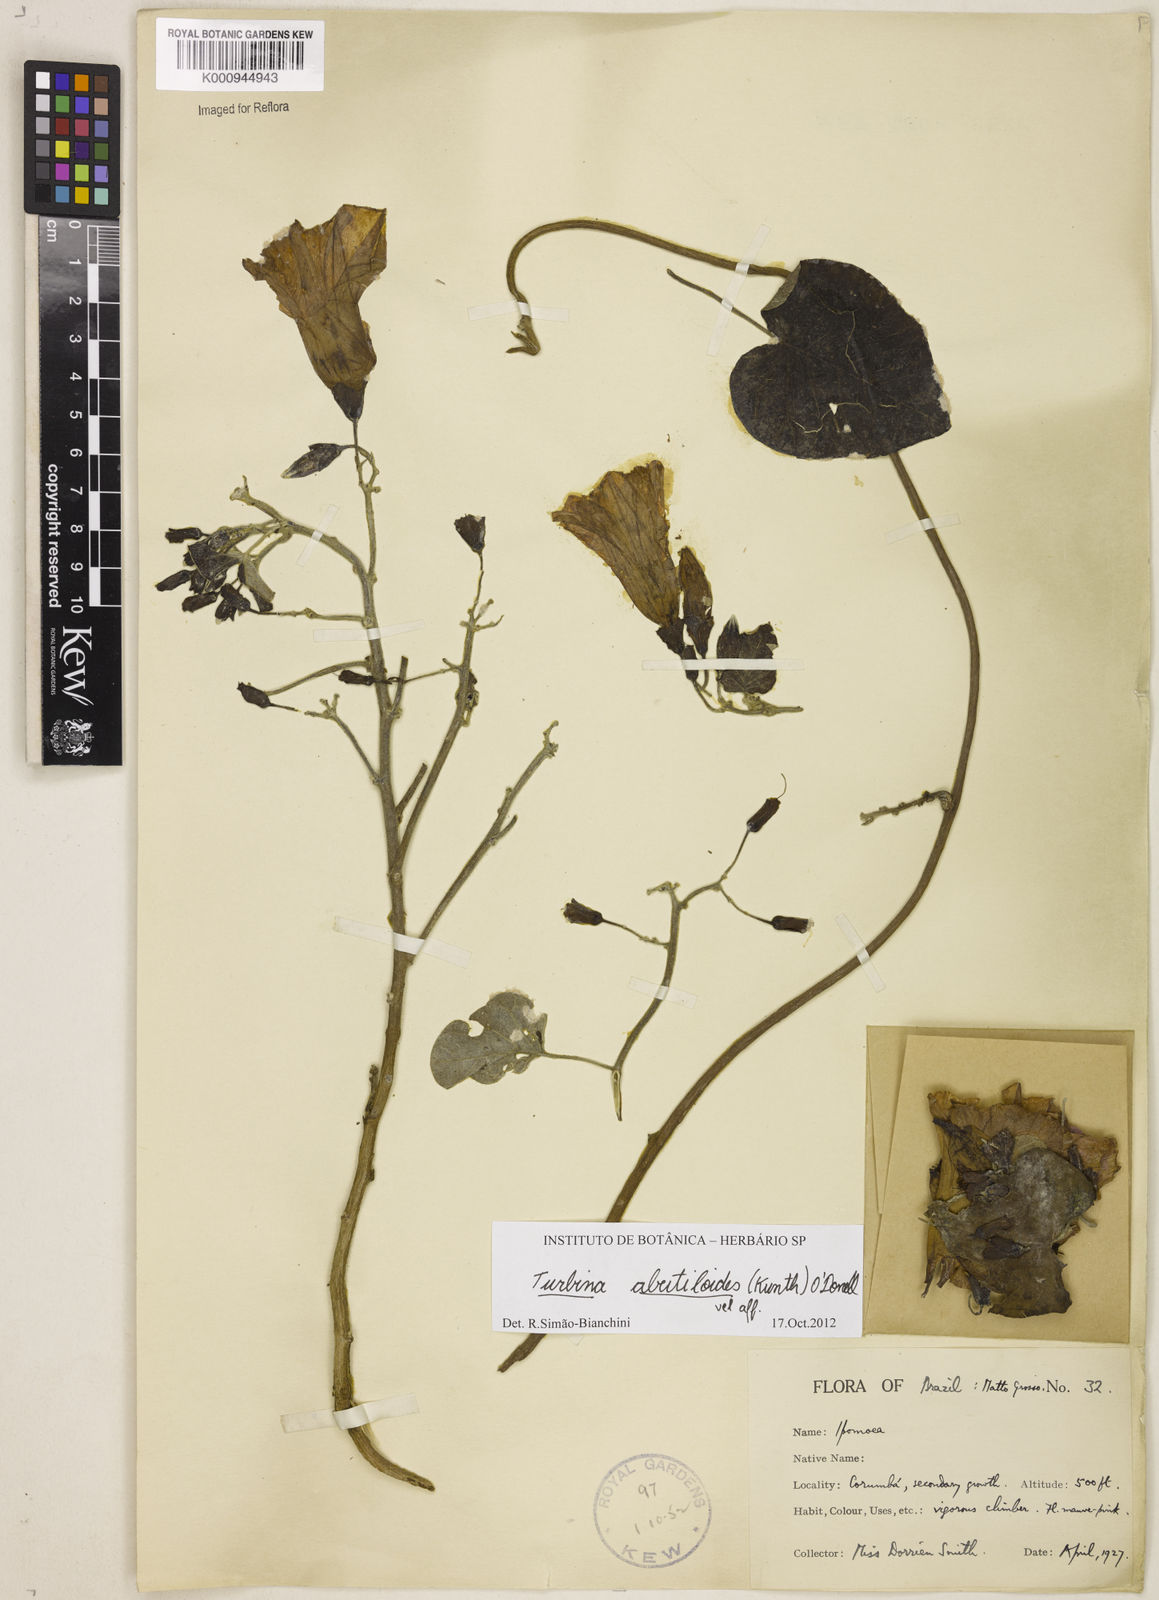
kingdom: Plantae
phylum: Tracheophyta
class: Magnoliopsida
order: Solanales
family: Convolvulaceae
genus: Distimake
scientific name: Distimake macrocalyx
